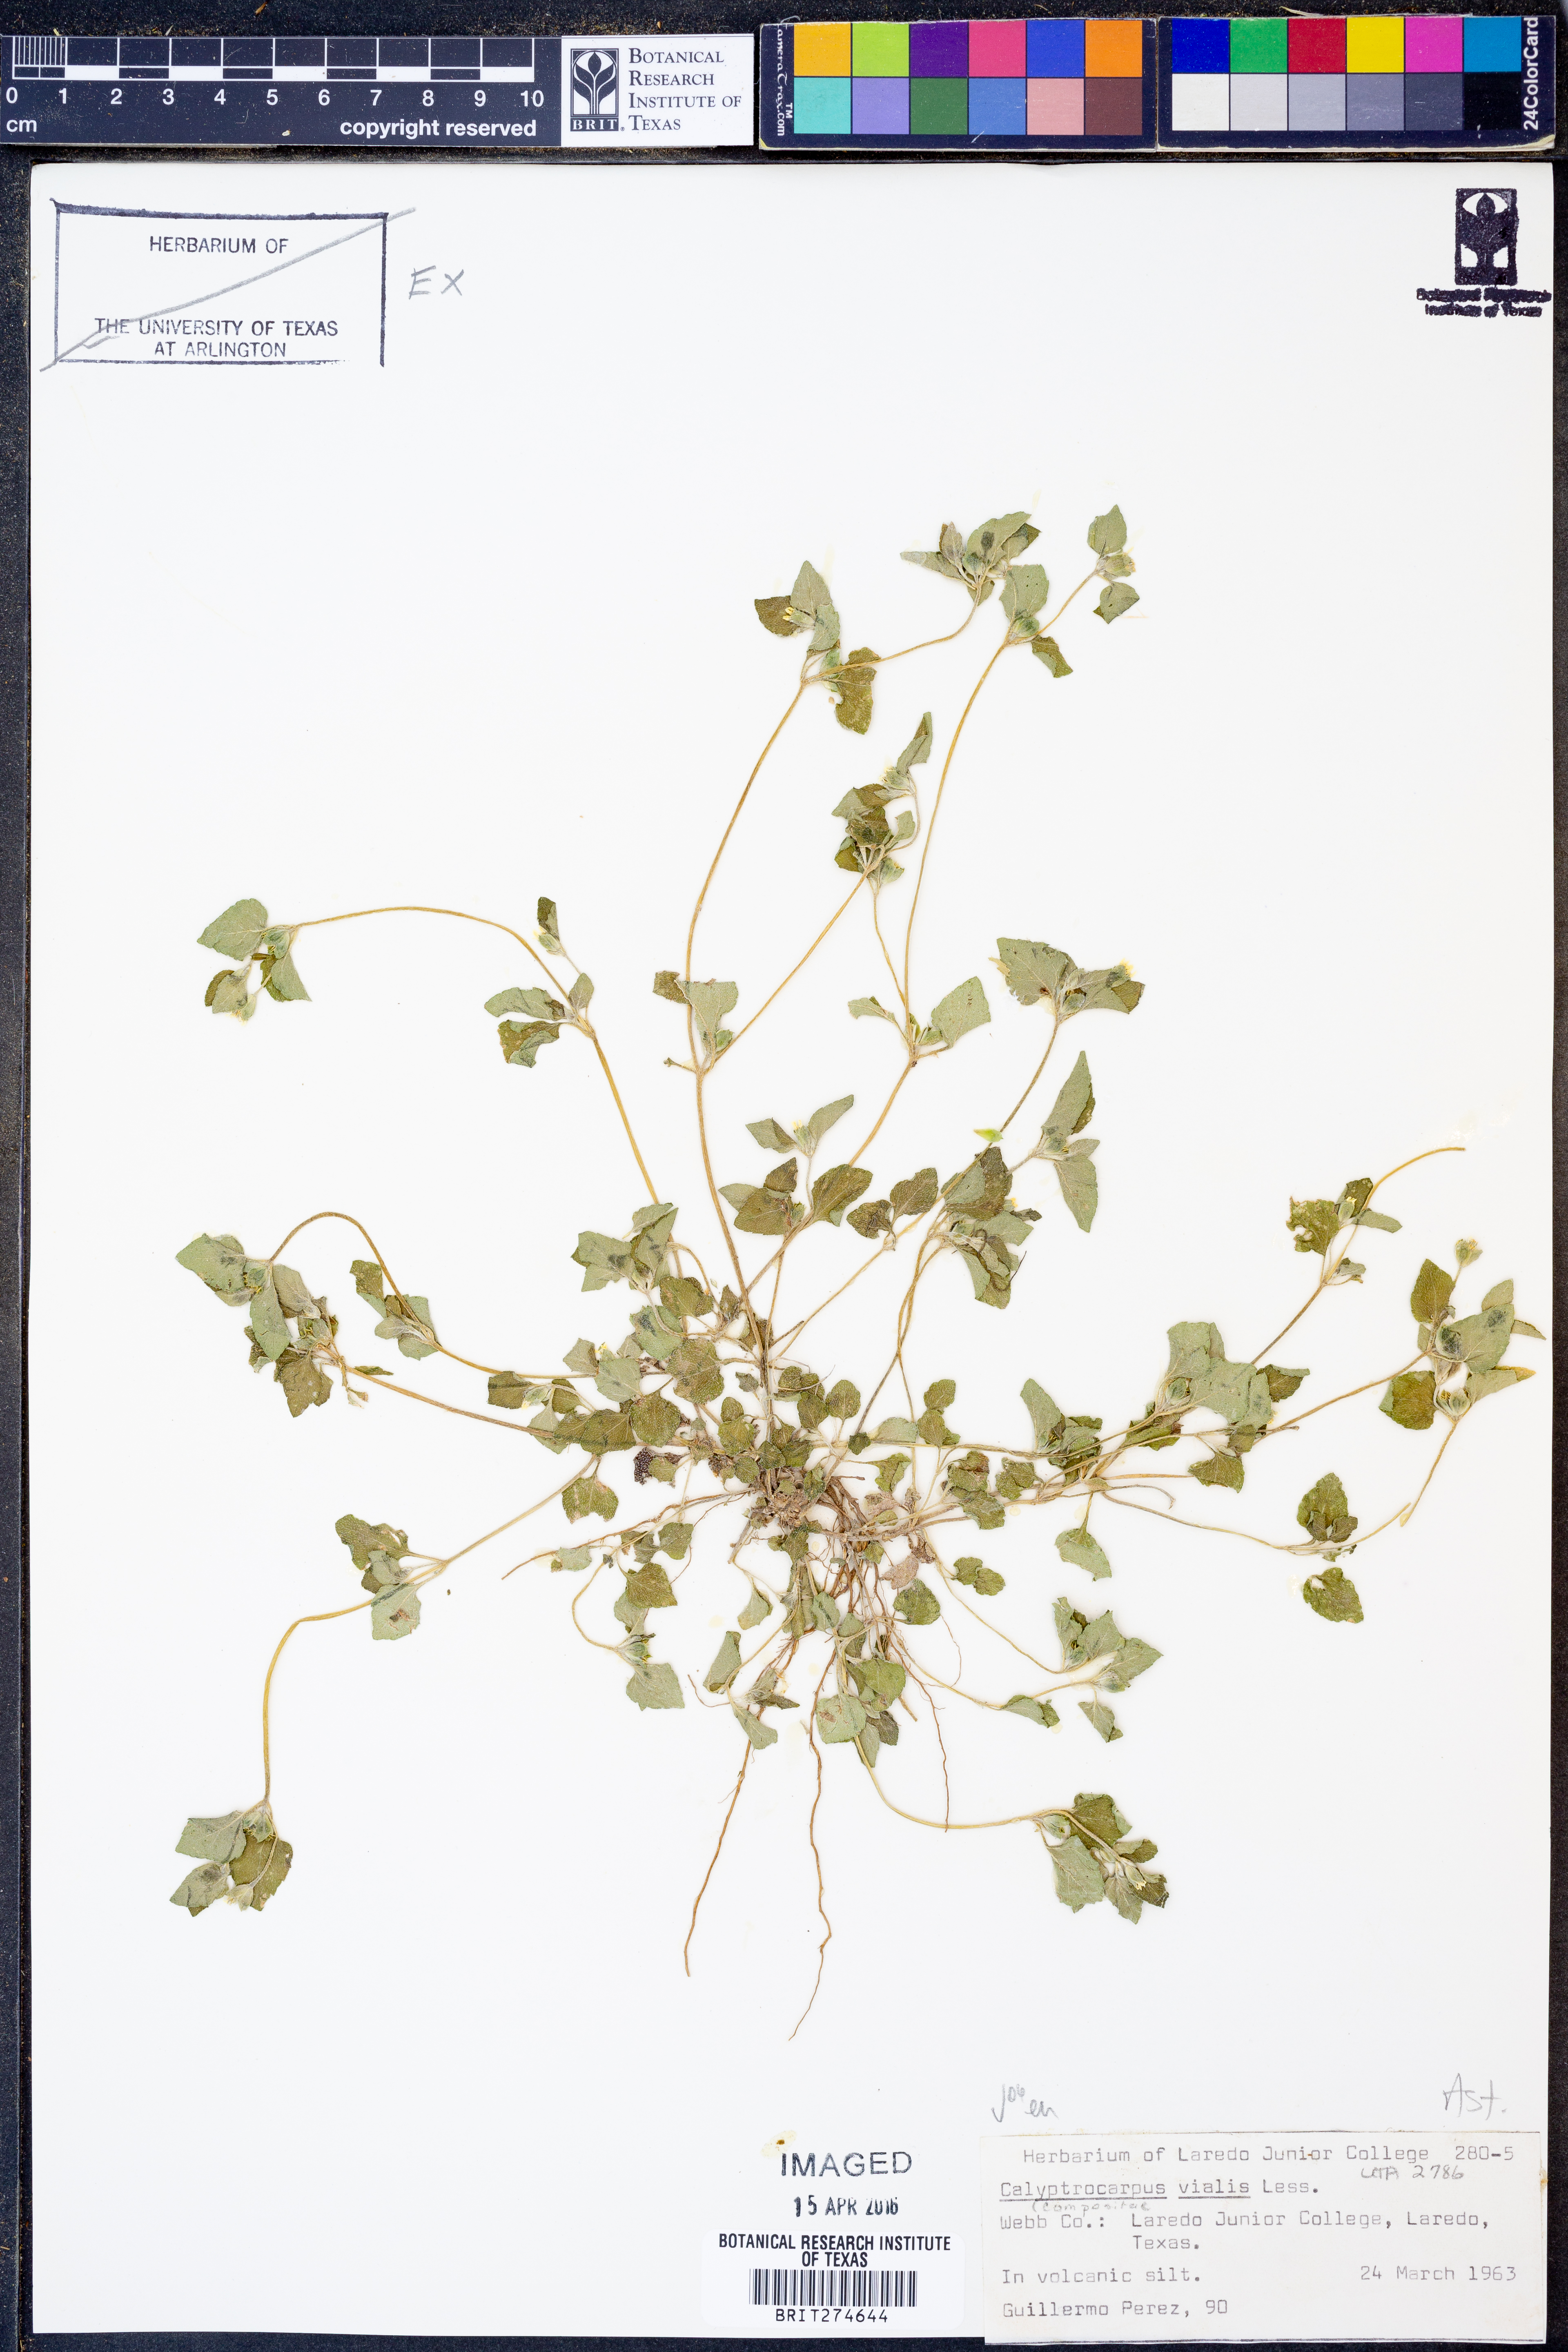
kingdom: Plantae
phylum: Tracheophyta
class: Magnoliopsida
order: Asterales
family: Asteraceae
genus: Calyptocarpus
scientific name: Calyptocarpus vialis
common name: Straggler daisy
